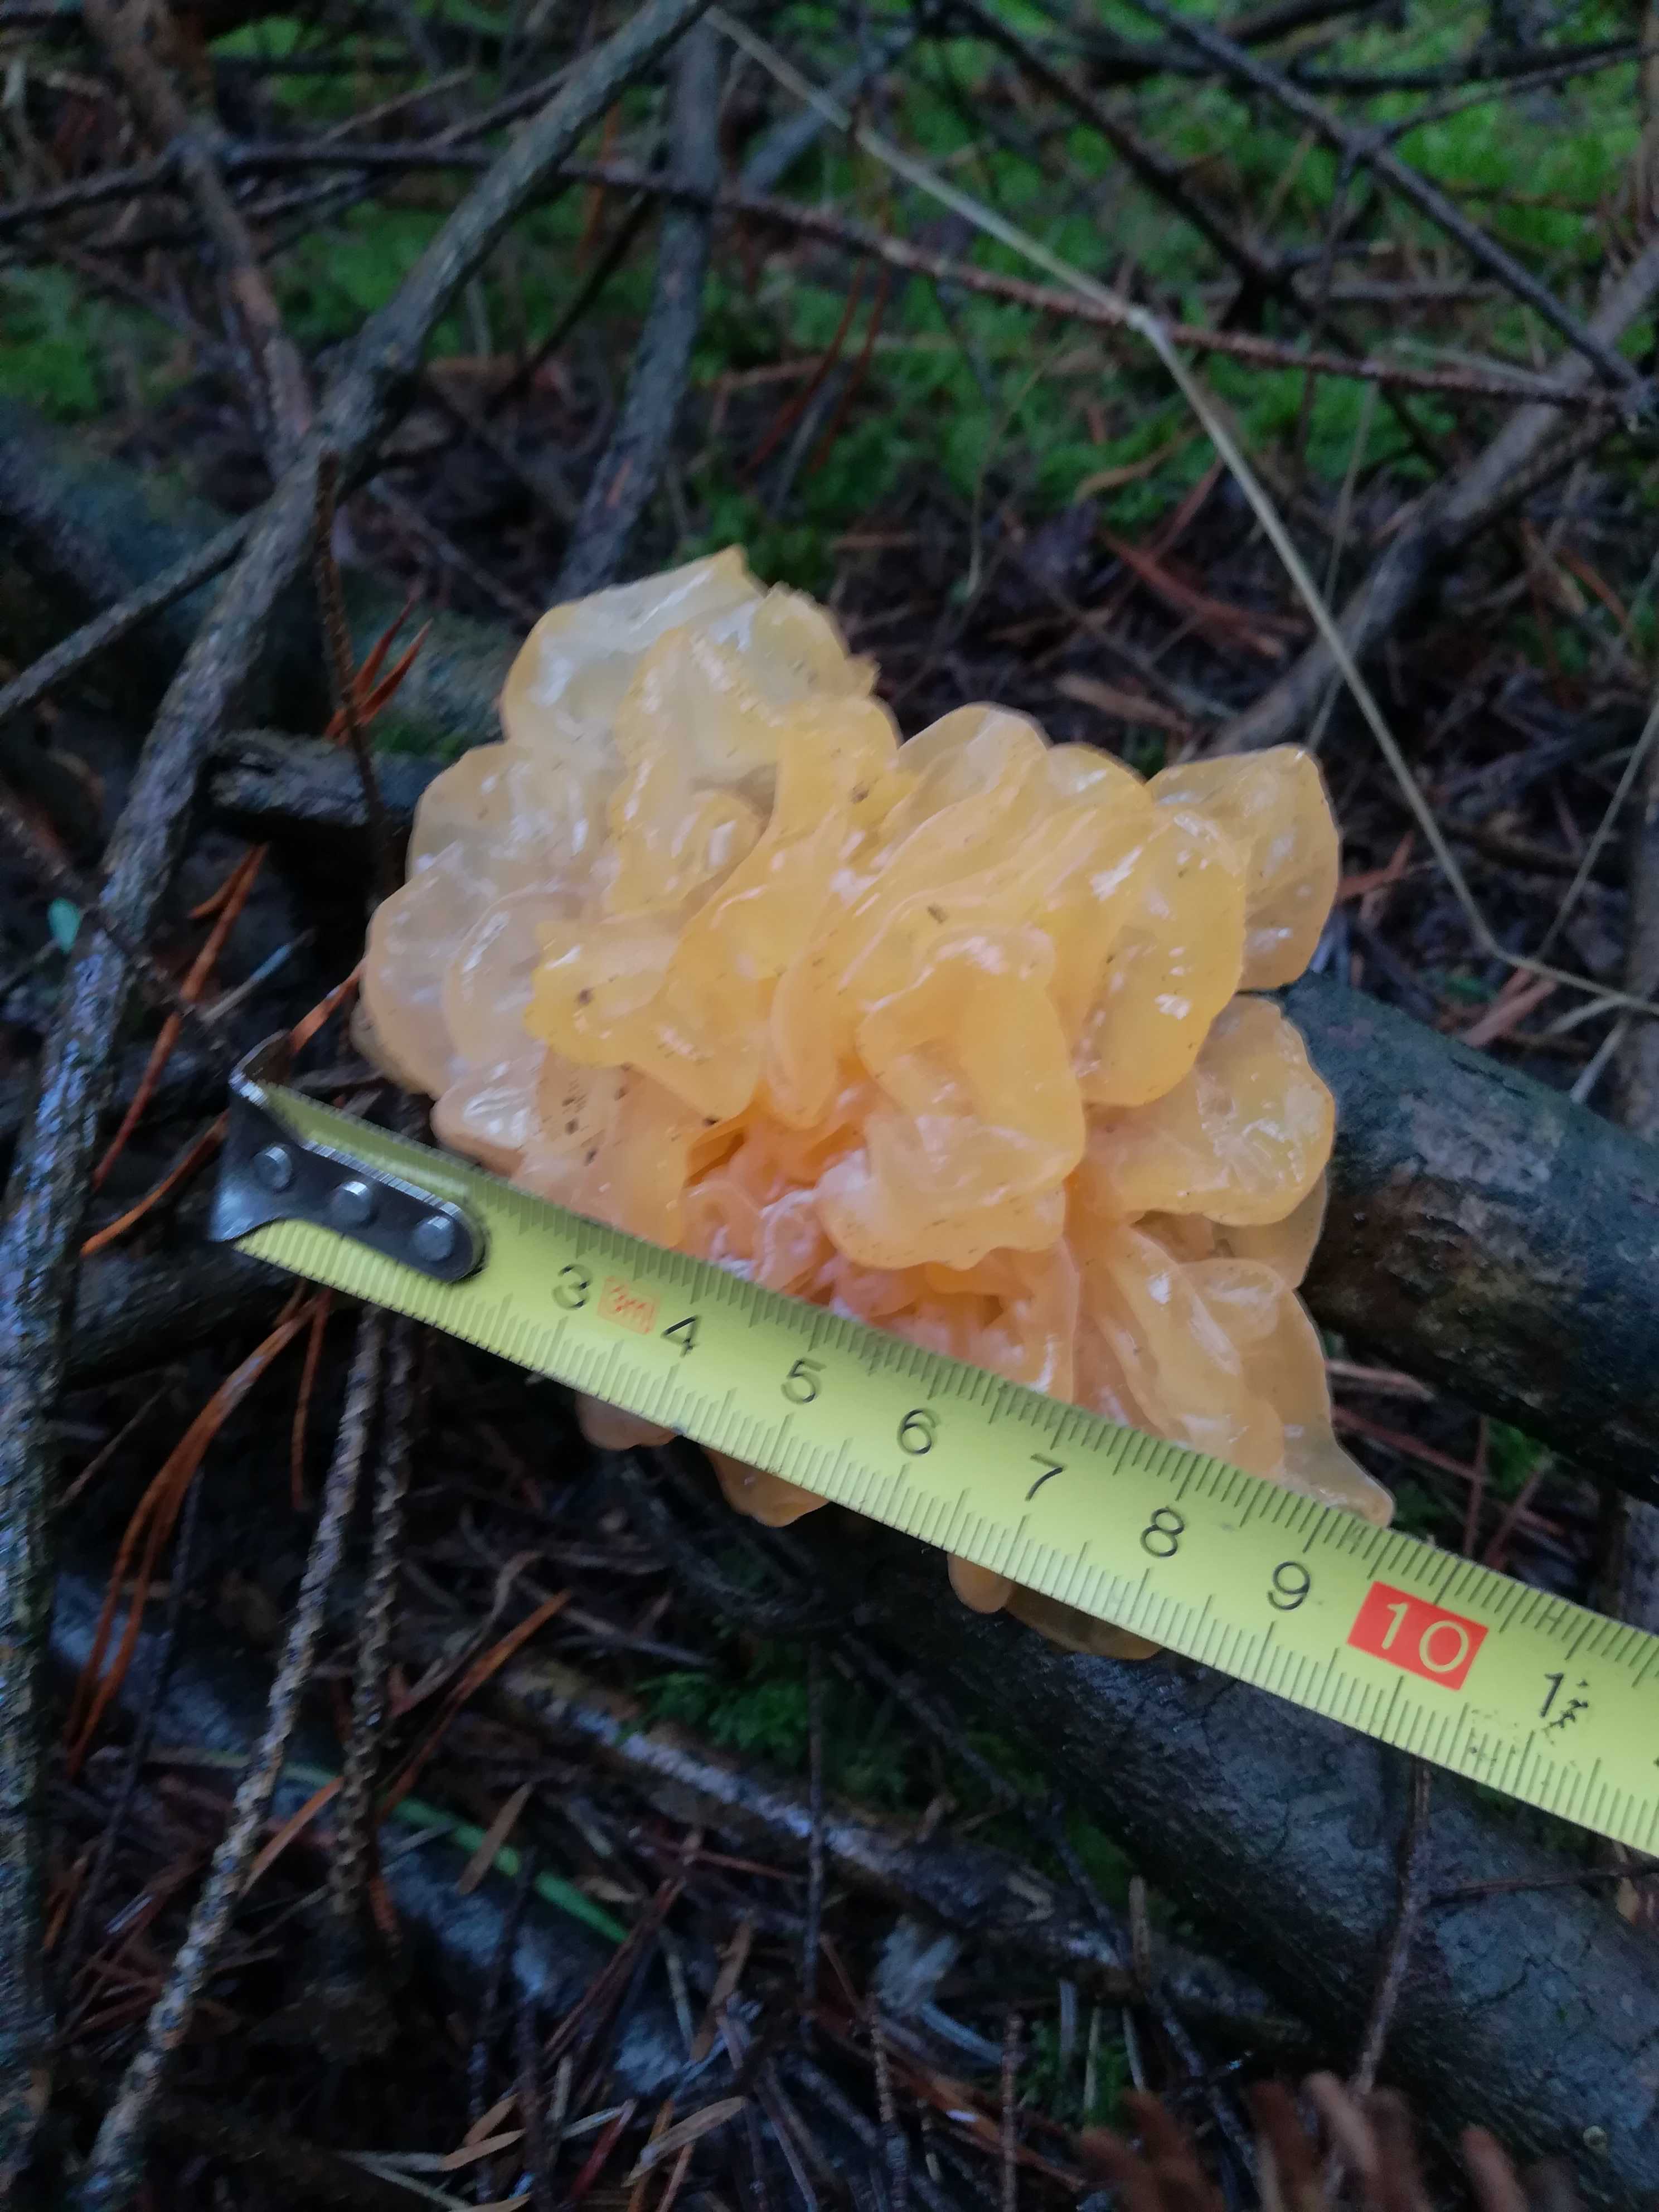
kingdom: Fungi
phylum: Basidiomycota
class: Tremellomycetes
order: Tremellales
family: Tremellaceae
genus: Tremella
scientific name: Tremella mesenterica
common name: gul bævresvamp
